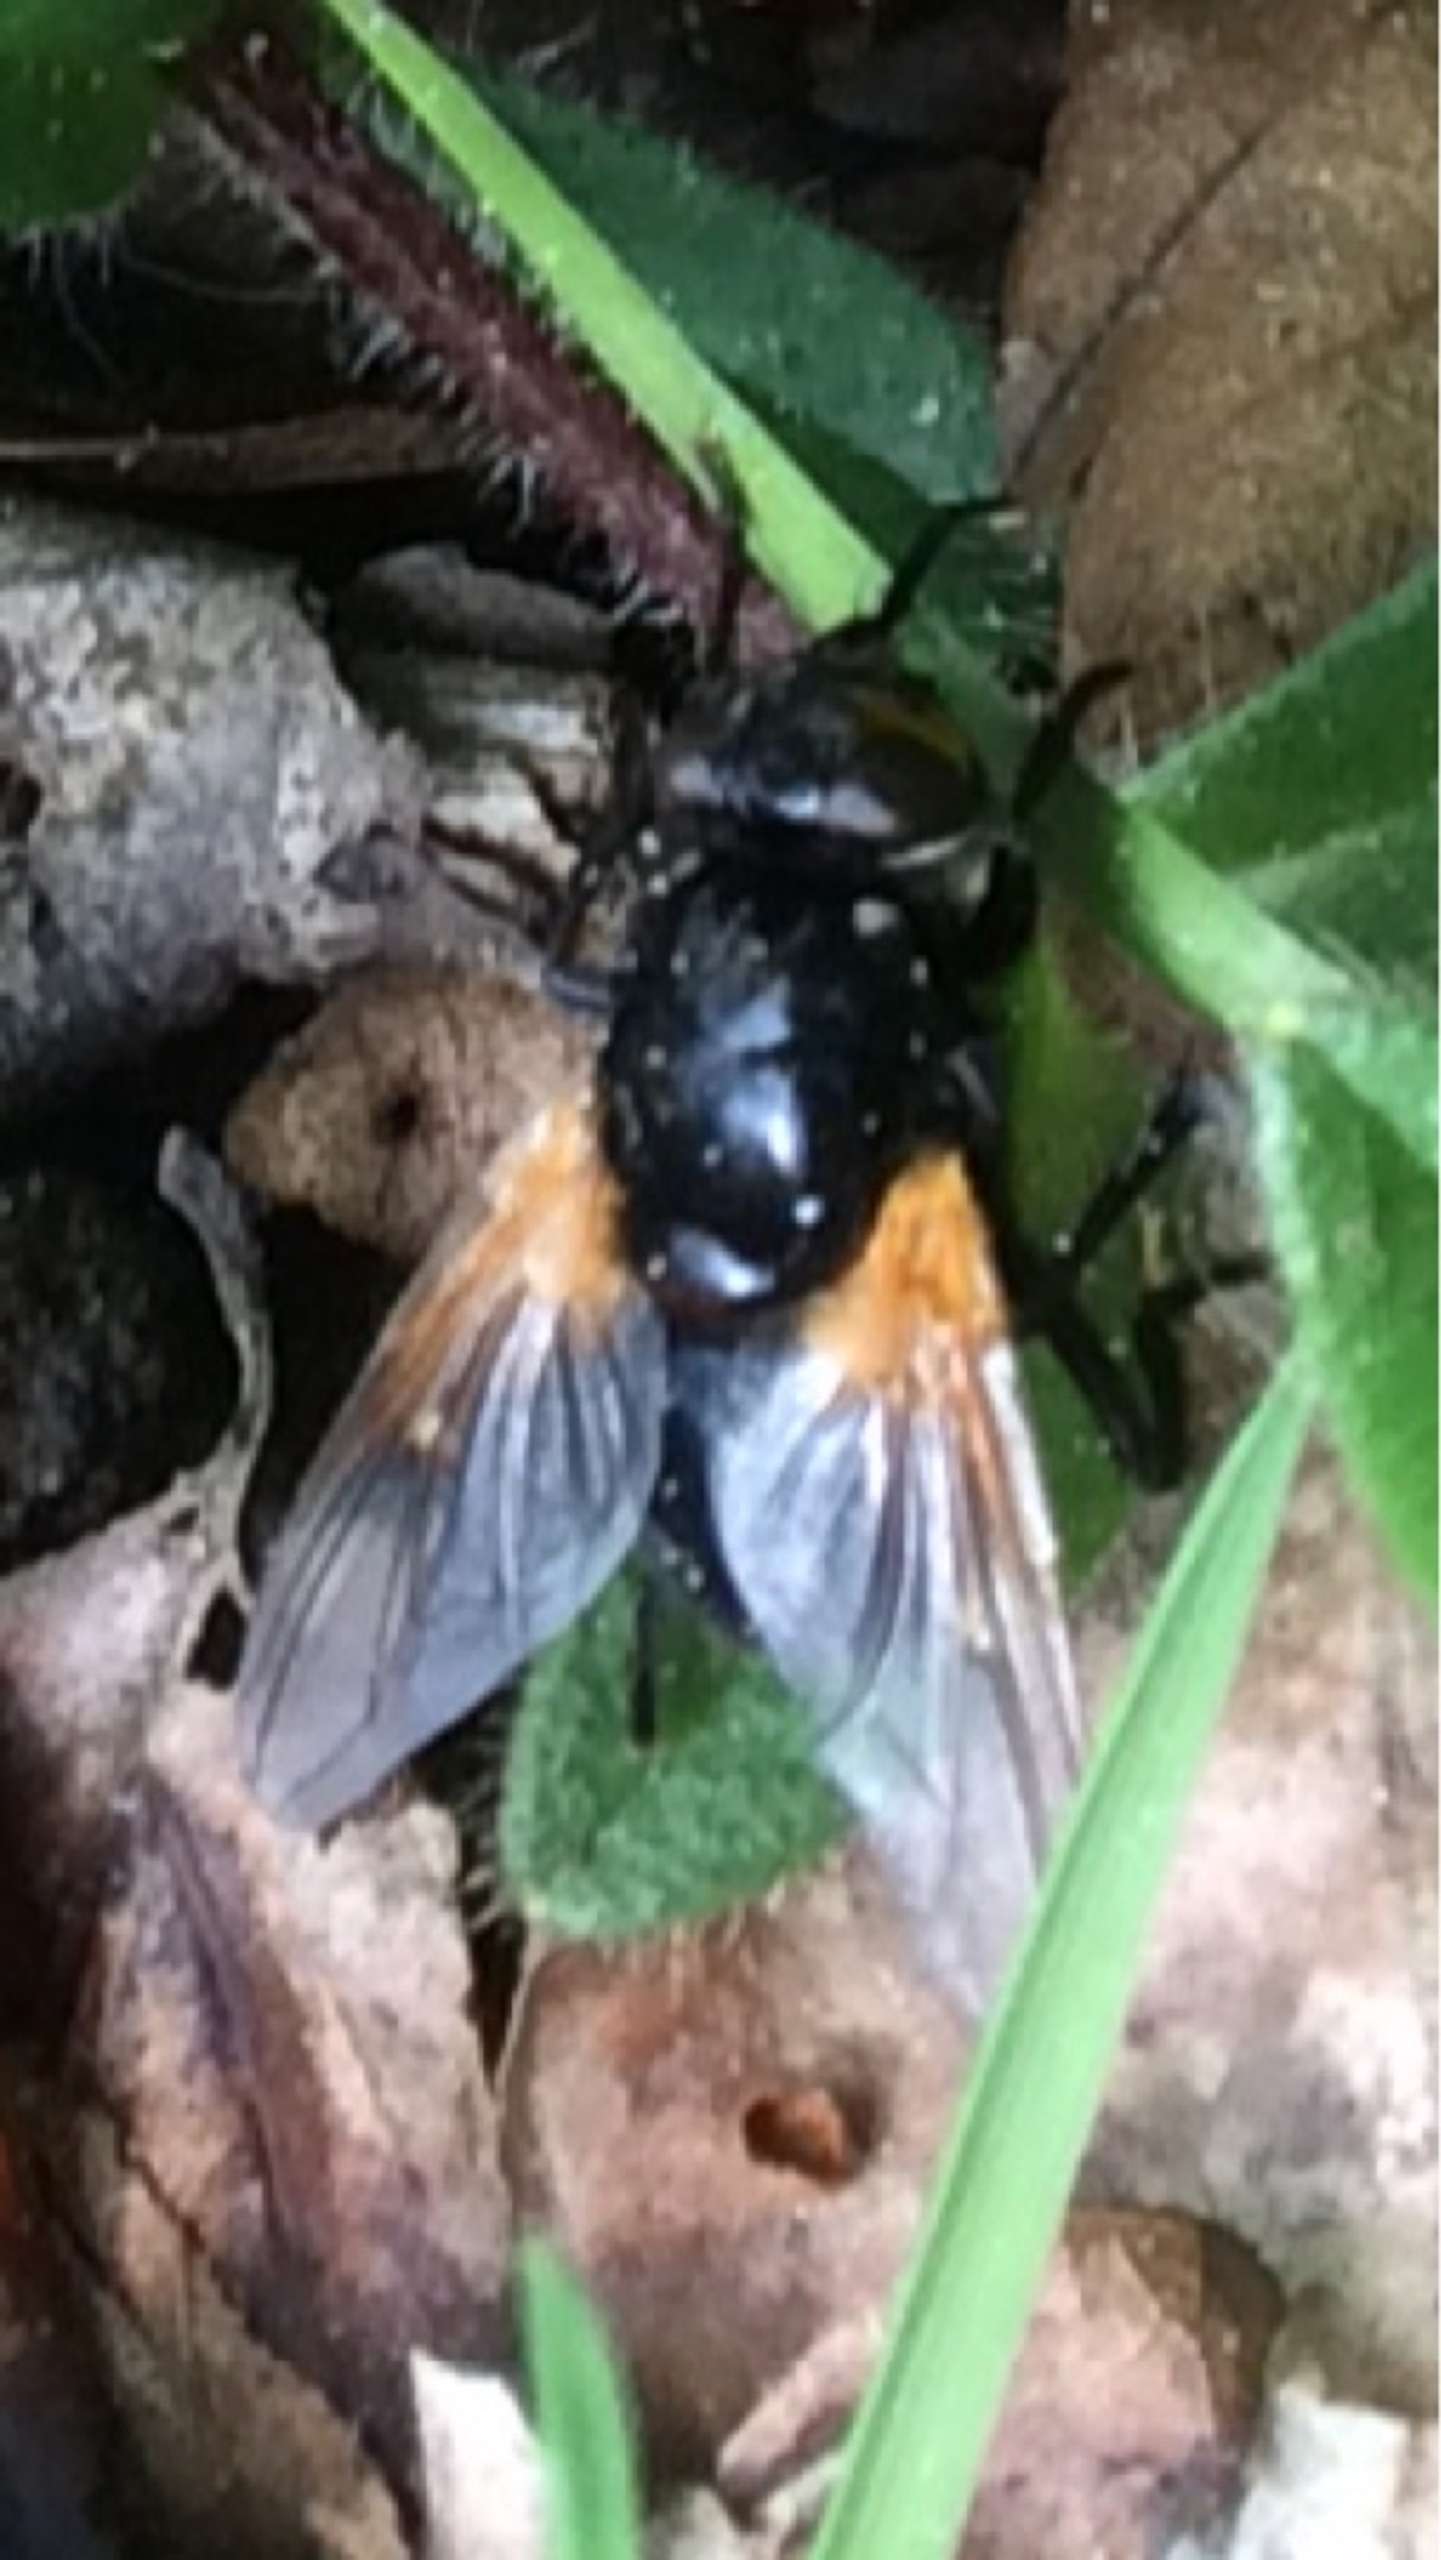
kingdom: Animalia
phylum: Arthropoda
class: Insecta
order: Diptera
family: Muscidae
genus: Mesembrina
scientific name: Mesembrina meridiana
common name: Gulvinget flue
